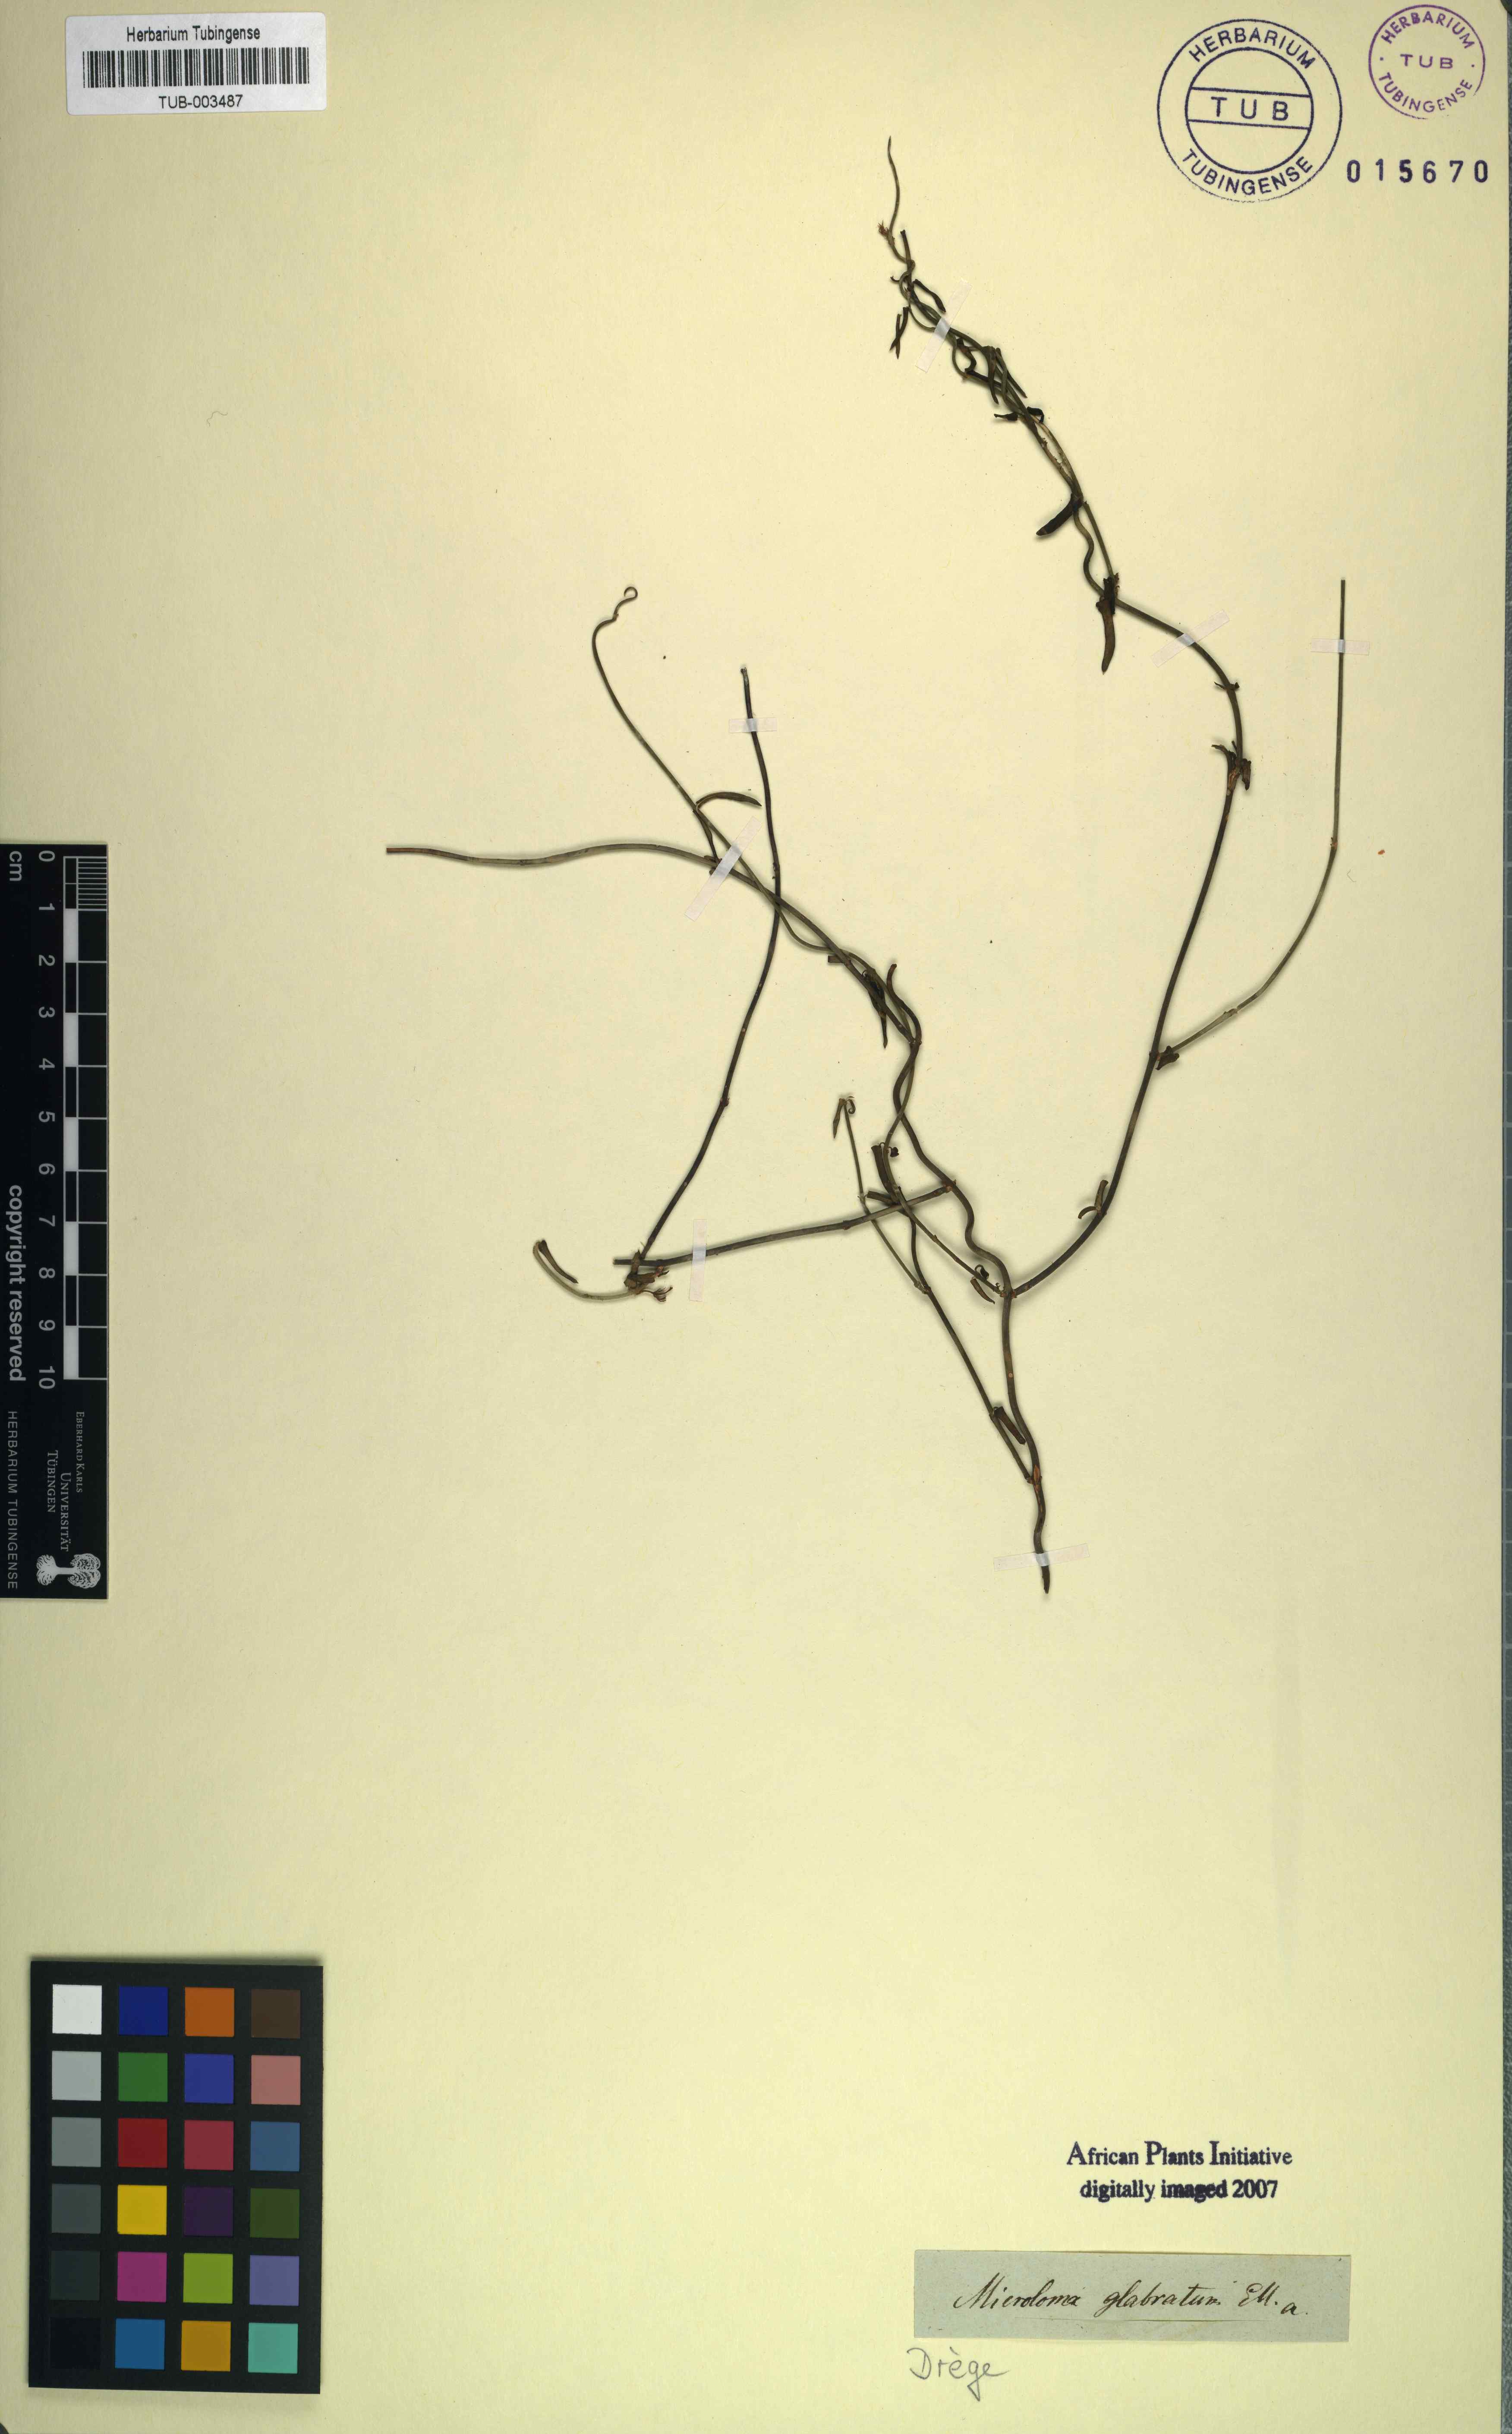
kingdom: Plantae
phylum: Tracheophyta
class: Magnoliopsida
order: Gentianales
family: Apocynaceae
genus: Microloma
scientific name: Microloma sagittatum
